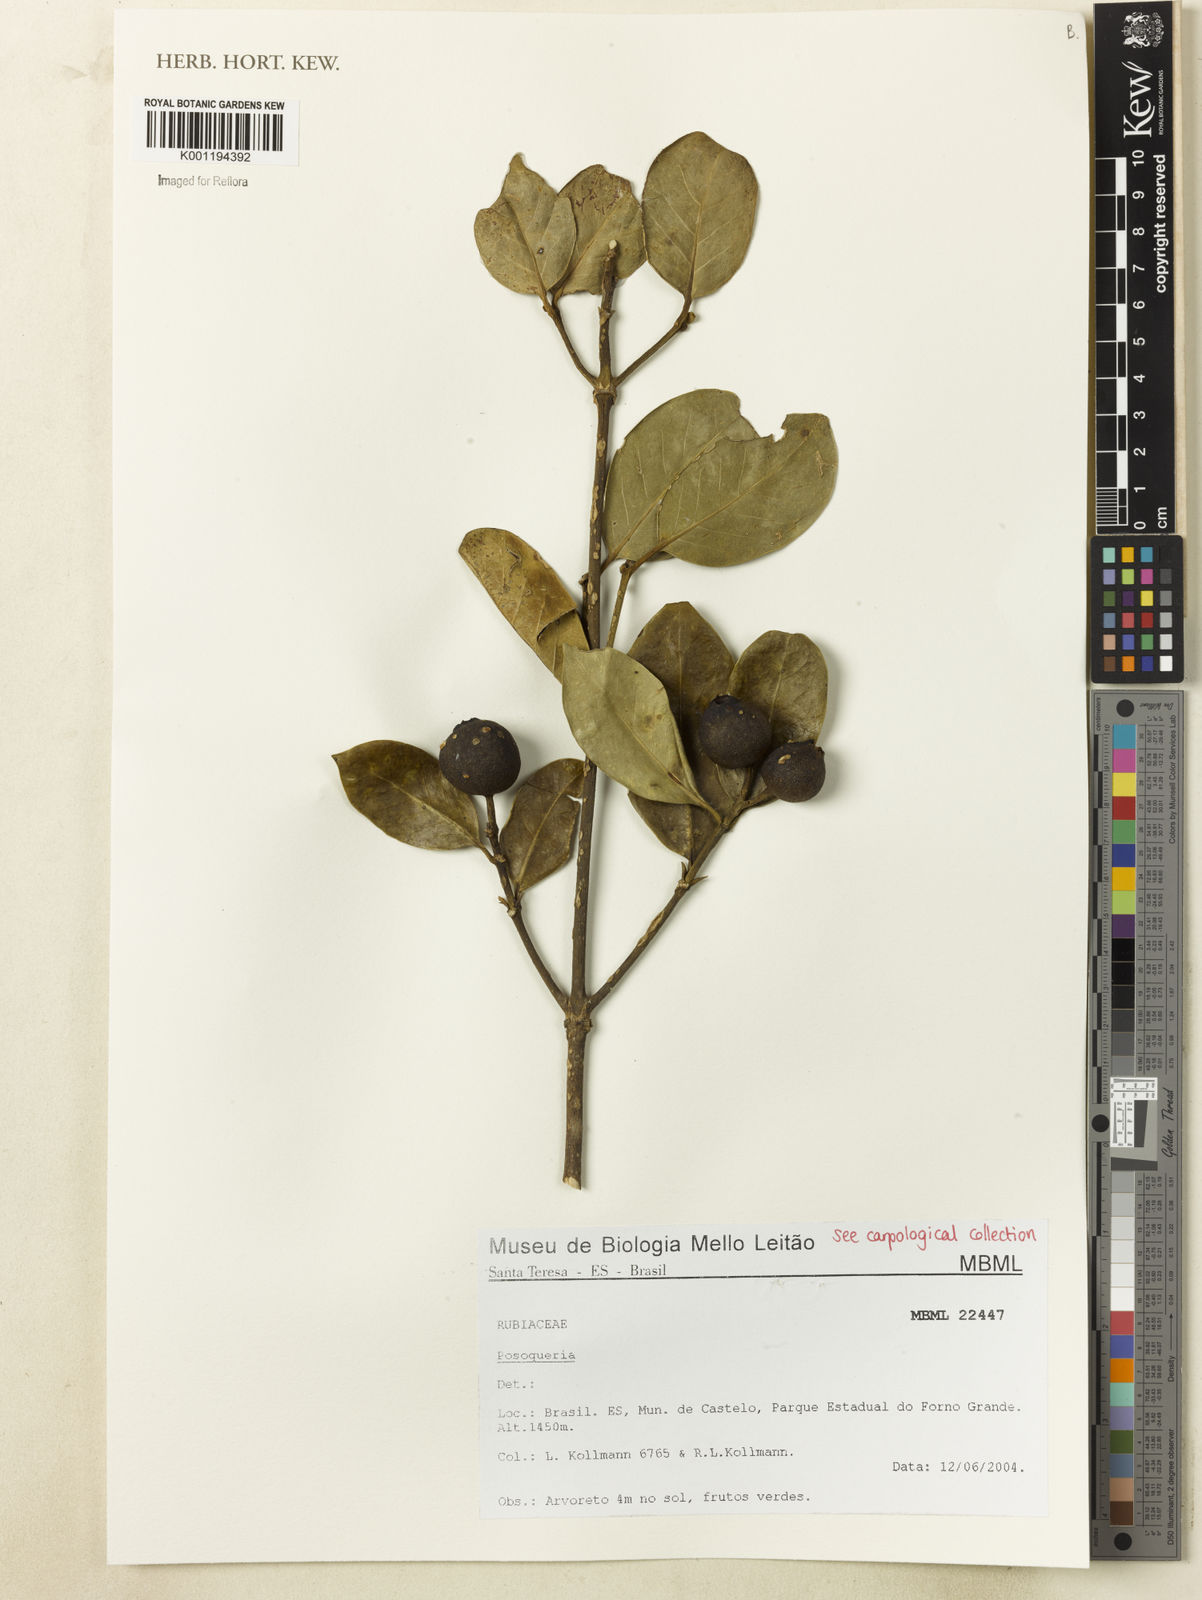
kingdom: Plantae
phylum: Tracheophyta
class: Magnoliopsida
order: Gentianales
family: Rubiaceae
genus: Posoqueria
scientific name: Posoqueria
